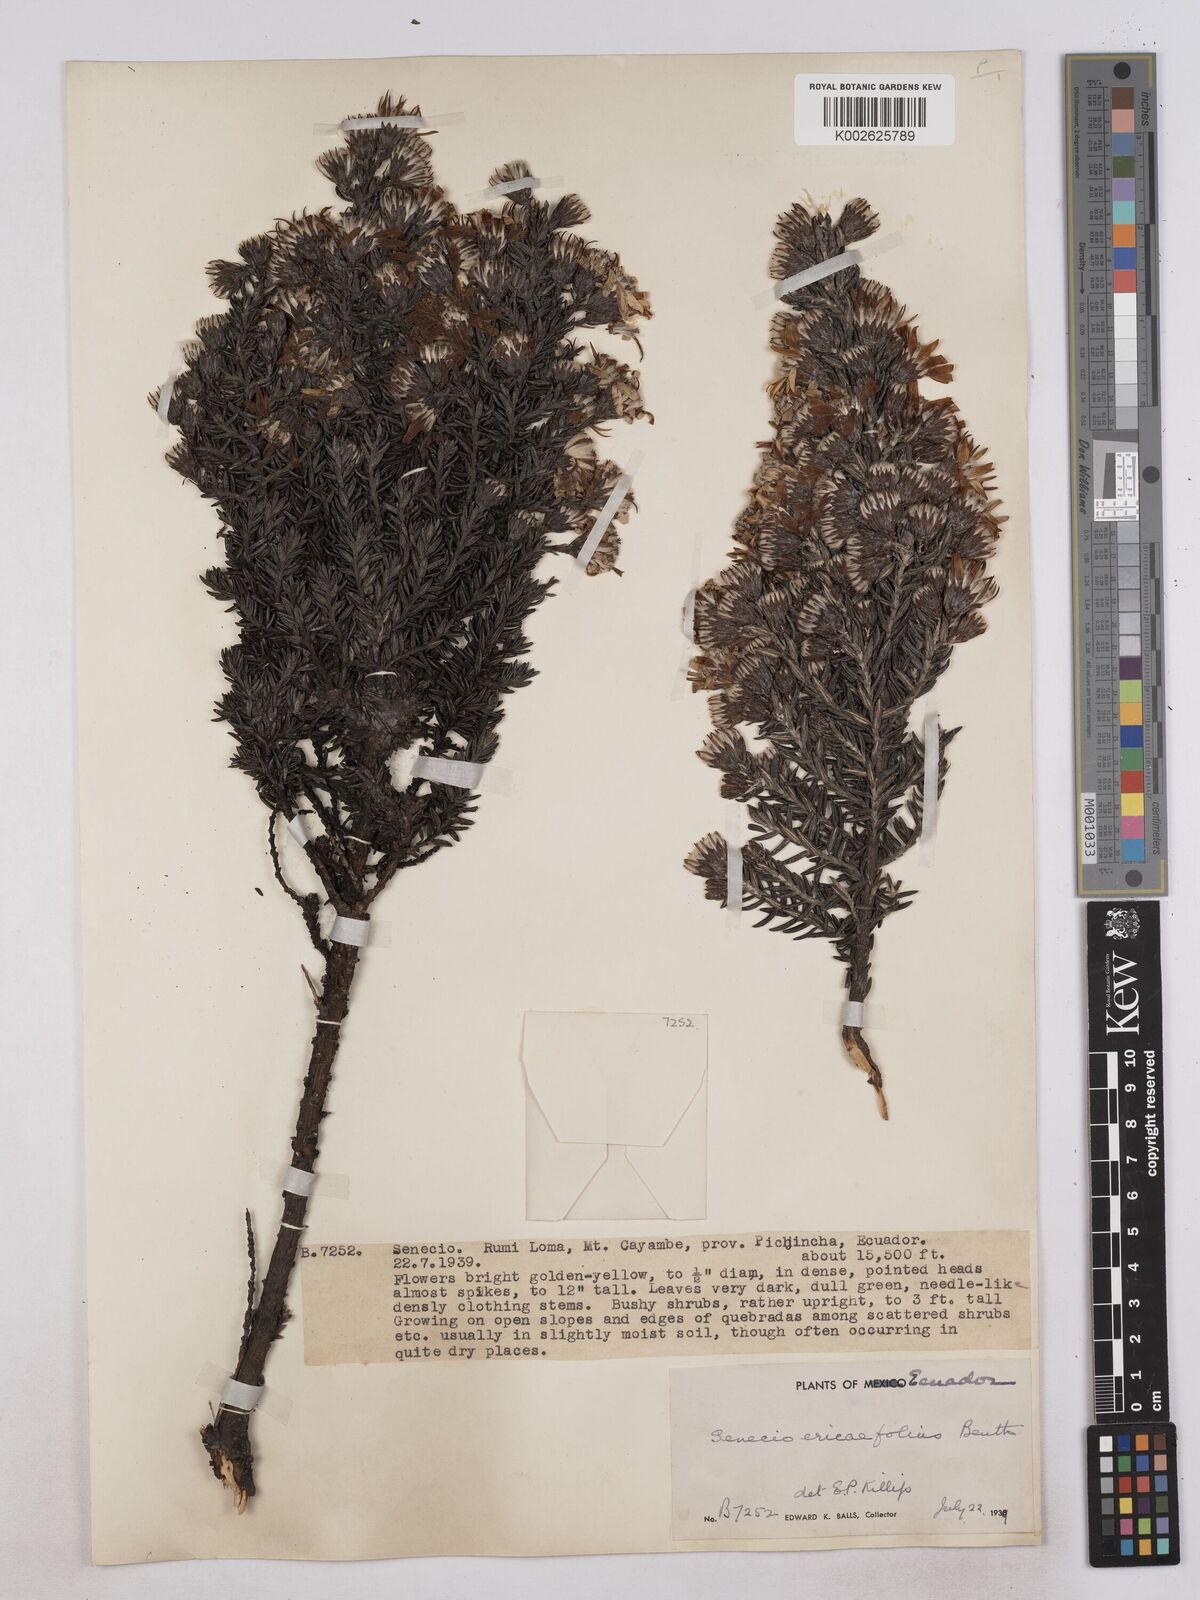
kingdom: Plantae
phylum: Tracheophyta
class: Magnoliopsida
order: Asterales
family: Asteraceae
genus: Monticalia
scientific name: Monticalia peruviana
